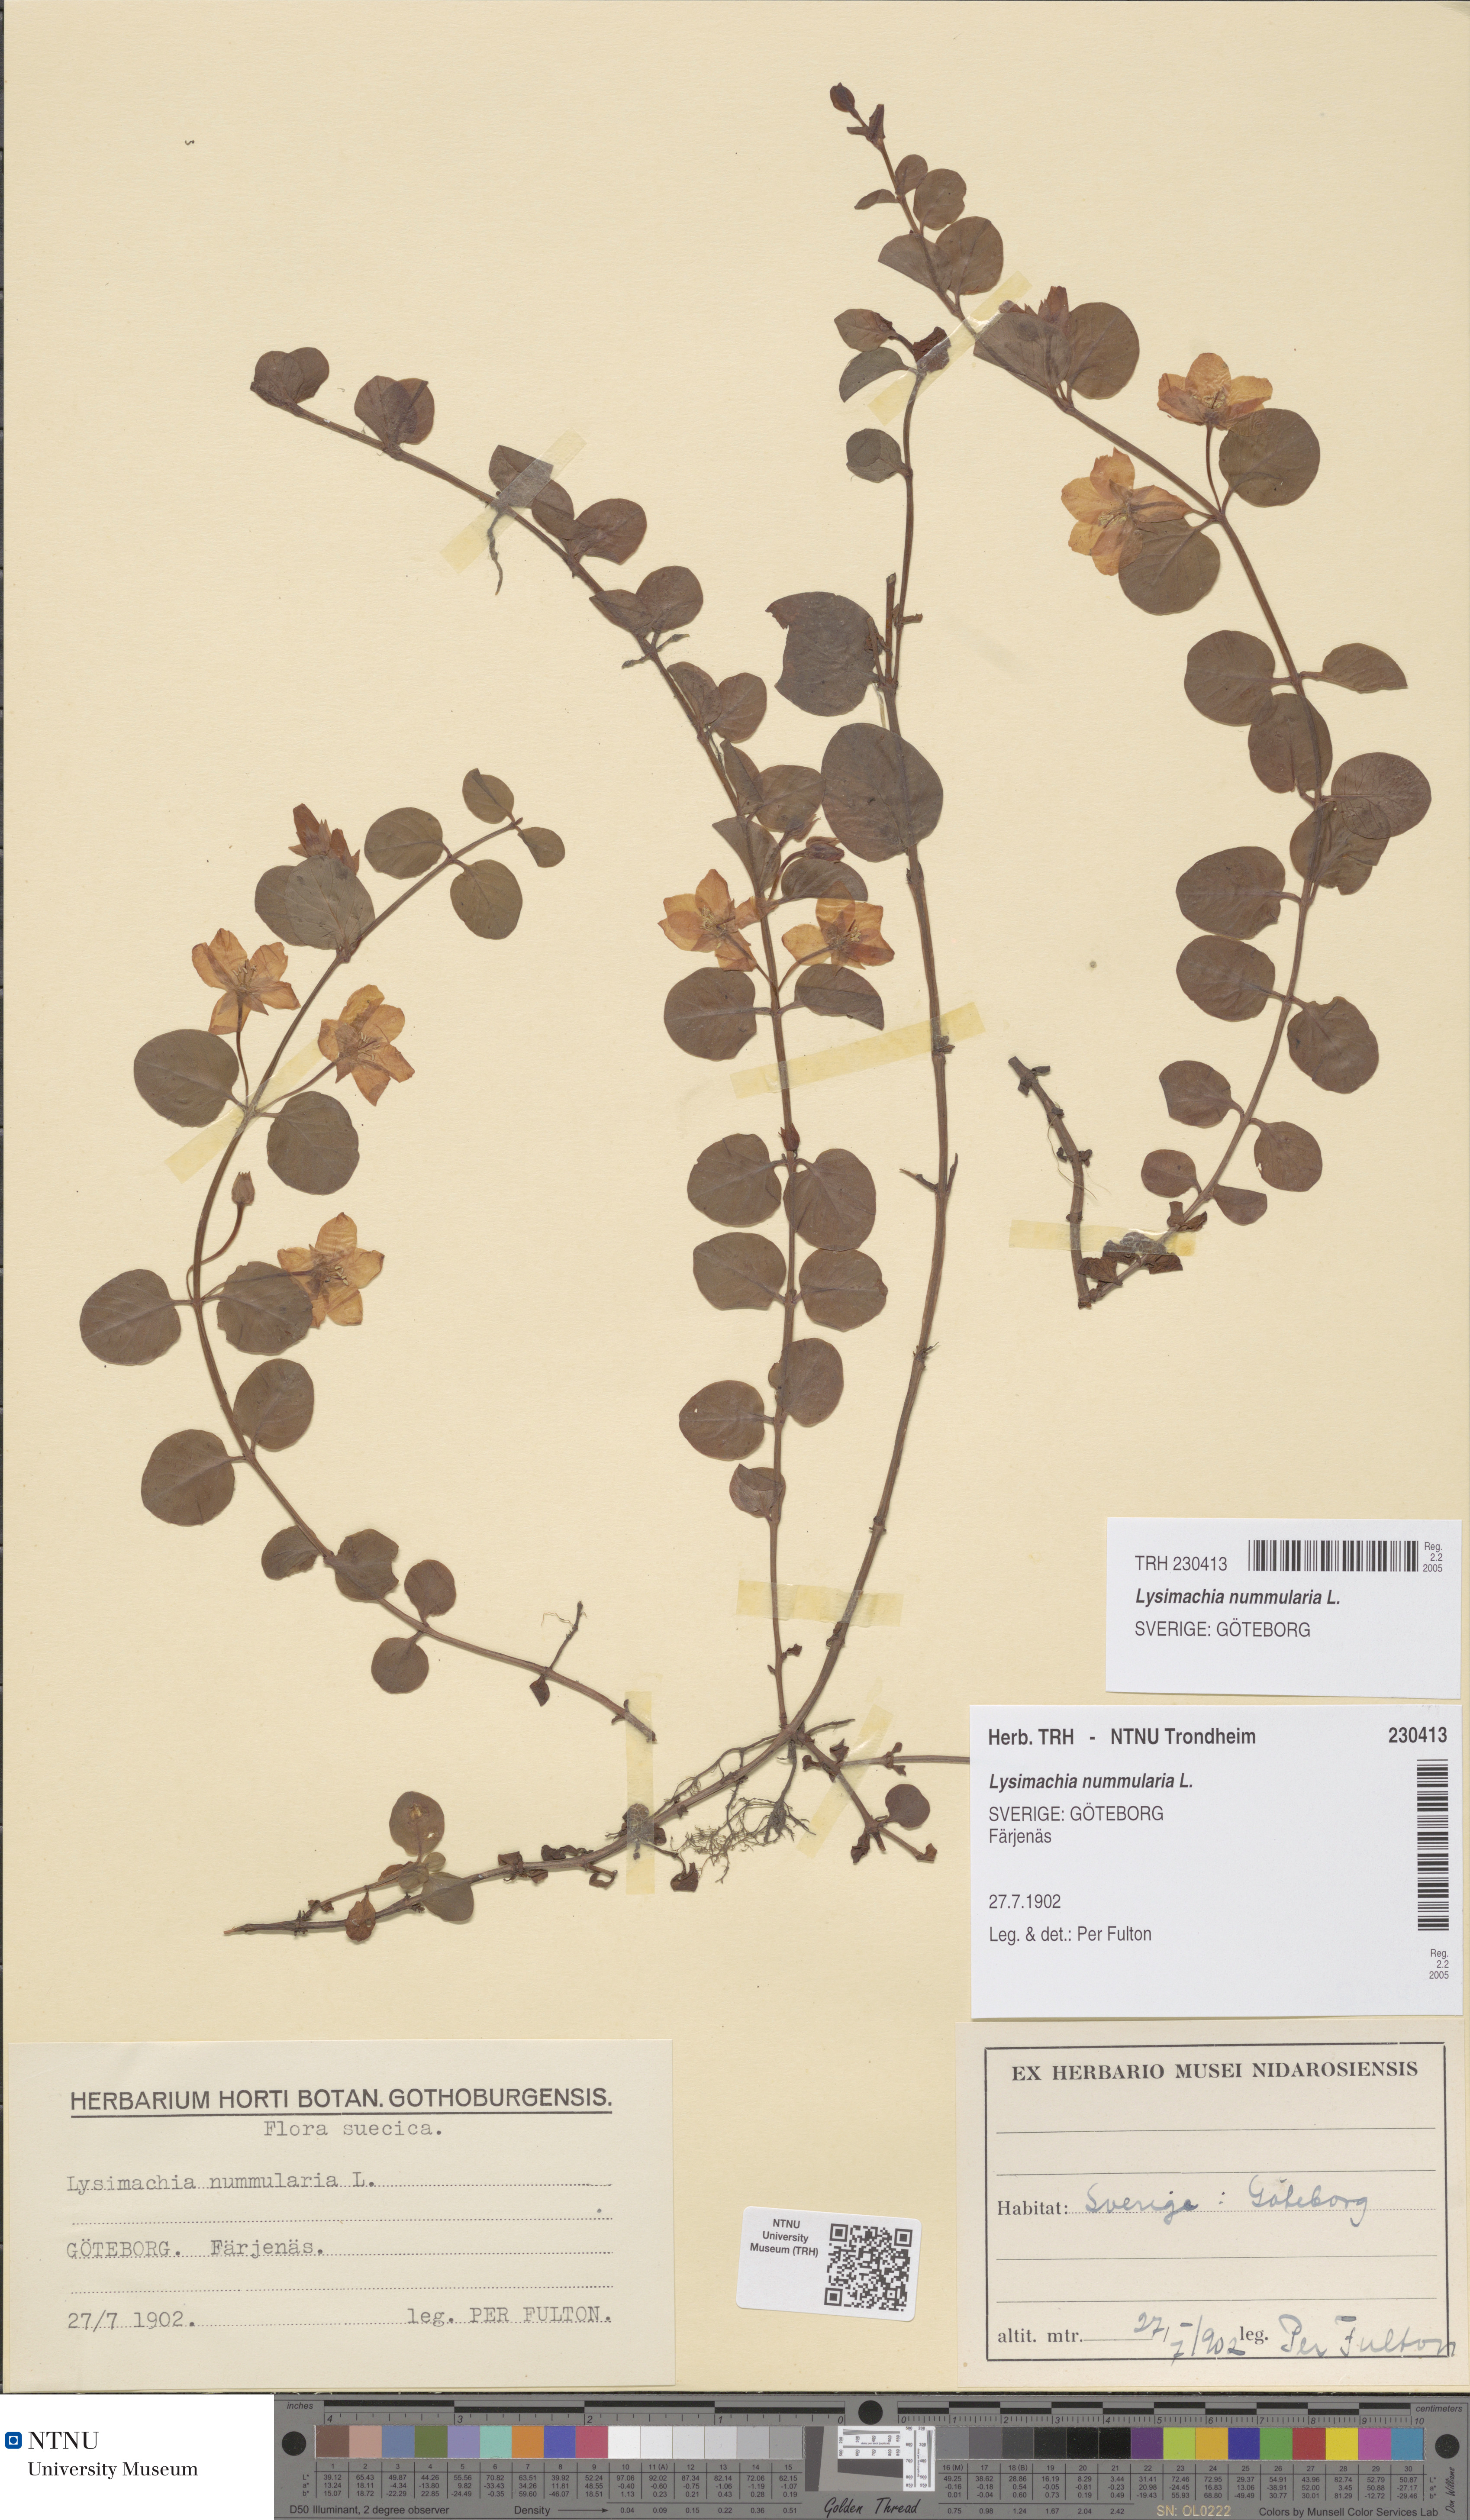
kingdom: Plantae
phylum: Tracheophyta
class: Magnoliopsida
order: Ericales
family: Primulaceae
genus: Lysimachia
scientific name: Lysimachia nummularia
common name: Moneywort
